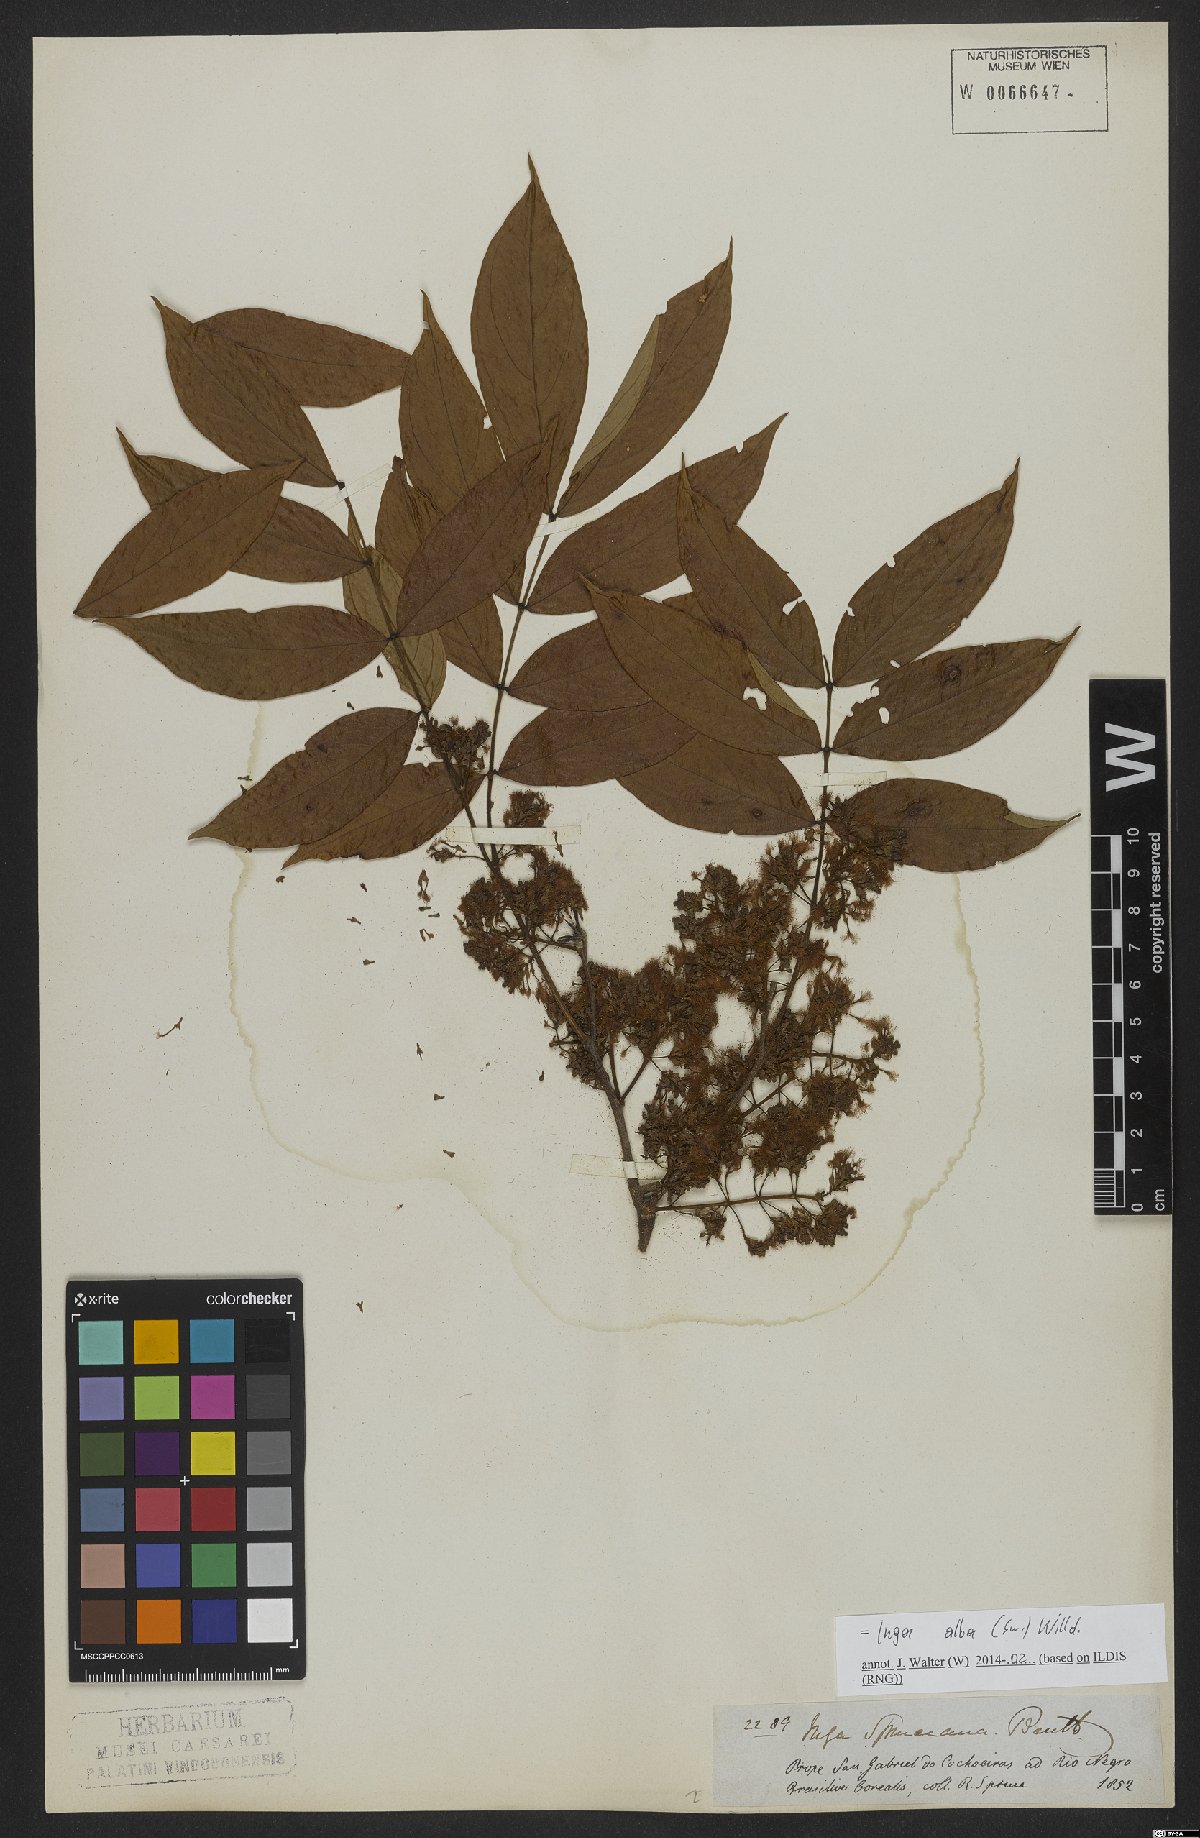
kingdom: Plantae
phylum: Tracheophyta
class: Magnoliopsida
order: Fabales
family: Fabaceae
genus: Inga
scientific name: Inga alba
